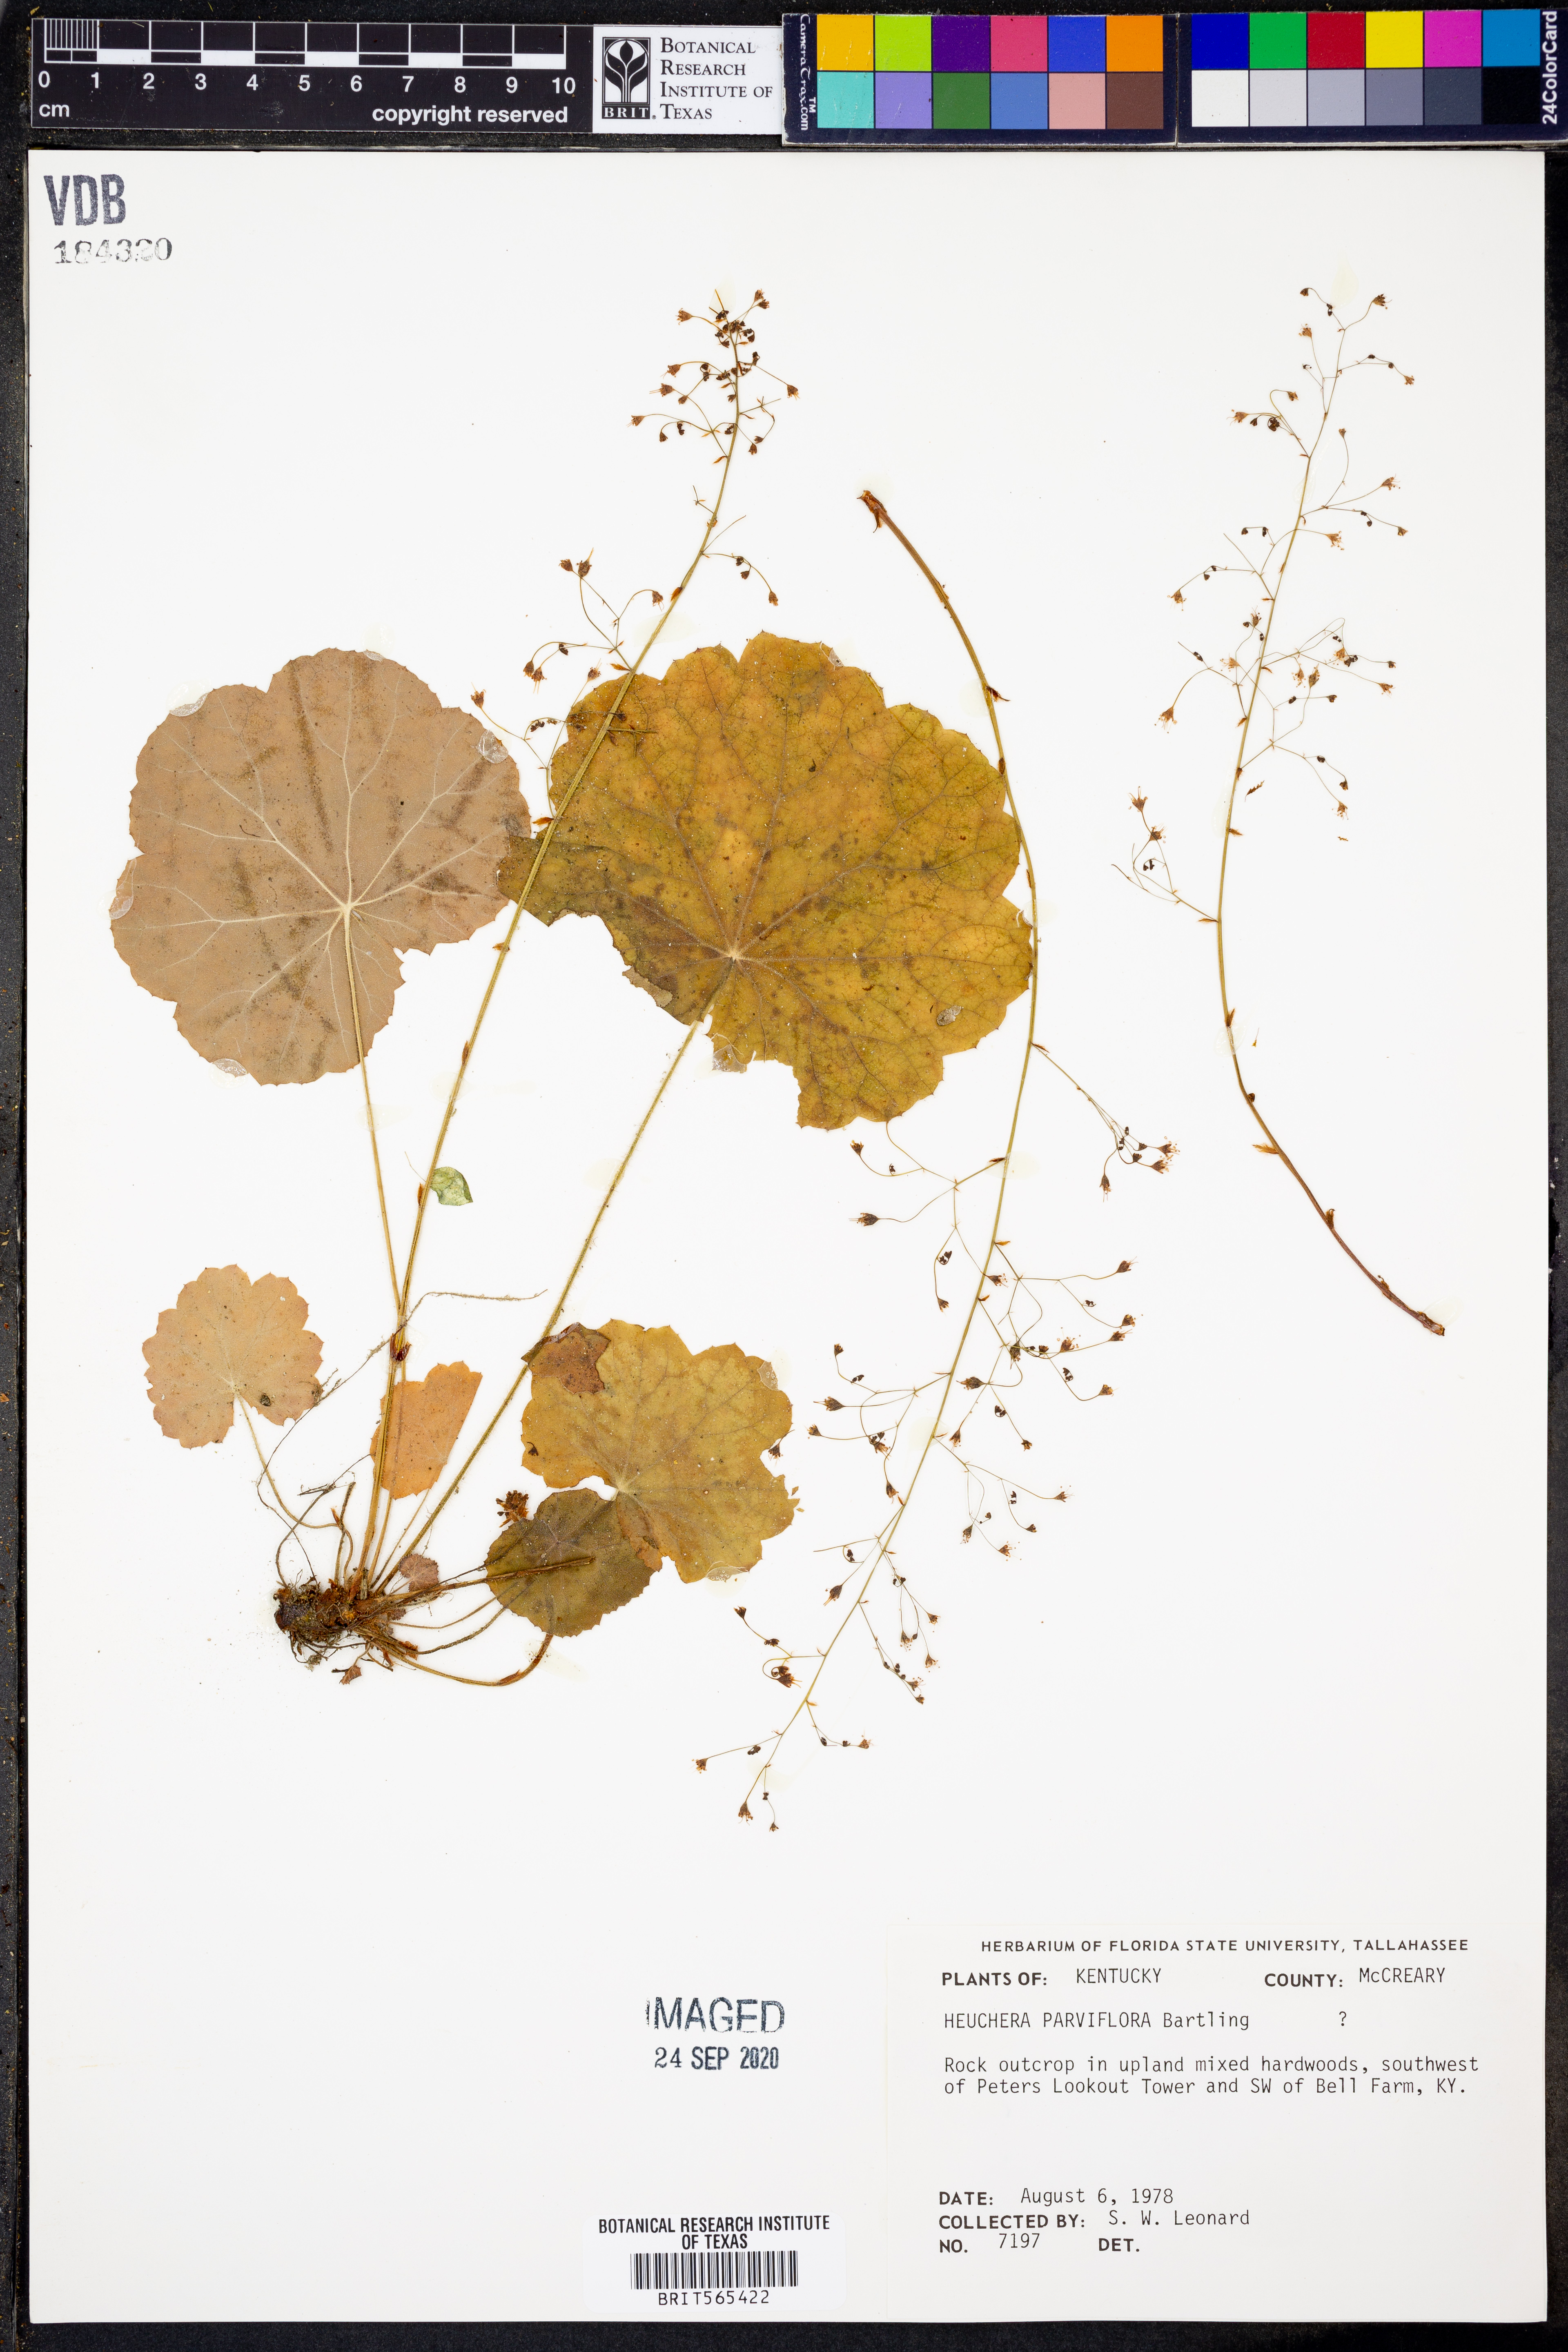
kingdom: Plantae
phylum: Tracheophyta
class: Magnoliopsida
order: Saxifragales
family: Saxifragaceae
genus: Heuchera
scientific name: Heuchera parviflora
